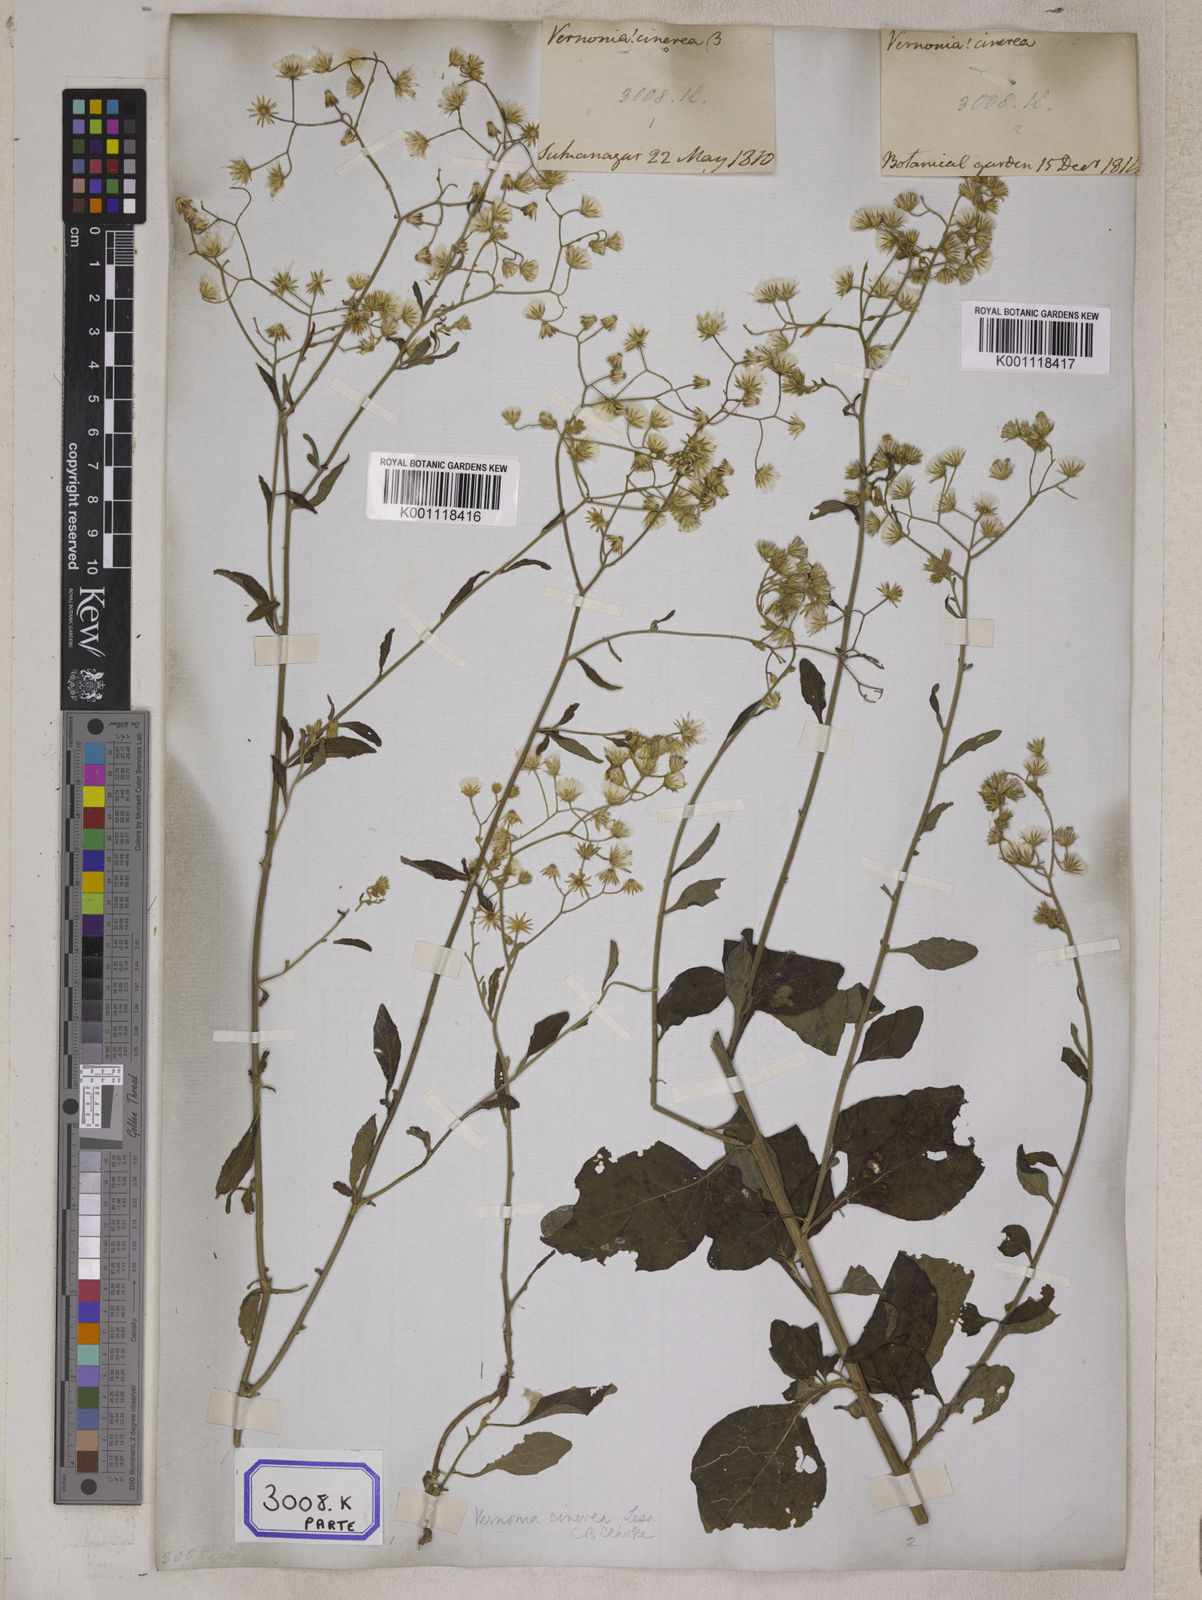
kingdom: Plantae
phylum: Tracheophyta
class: Magnoliopsida
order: Asterales
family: Asteraceae
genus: Cyanthillium
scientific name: Cyanthillium cinereum
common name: Little ironweed
